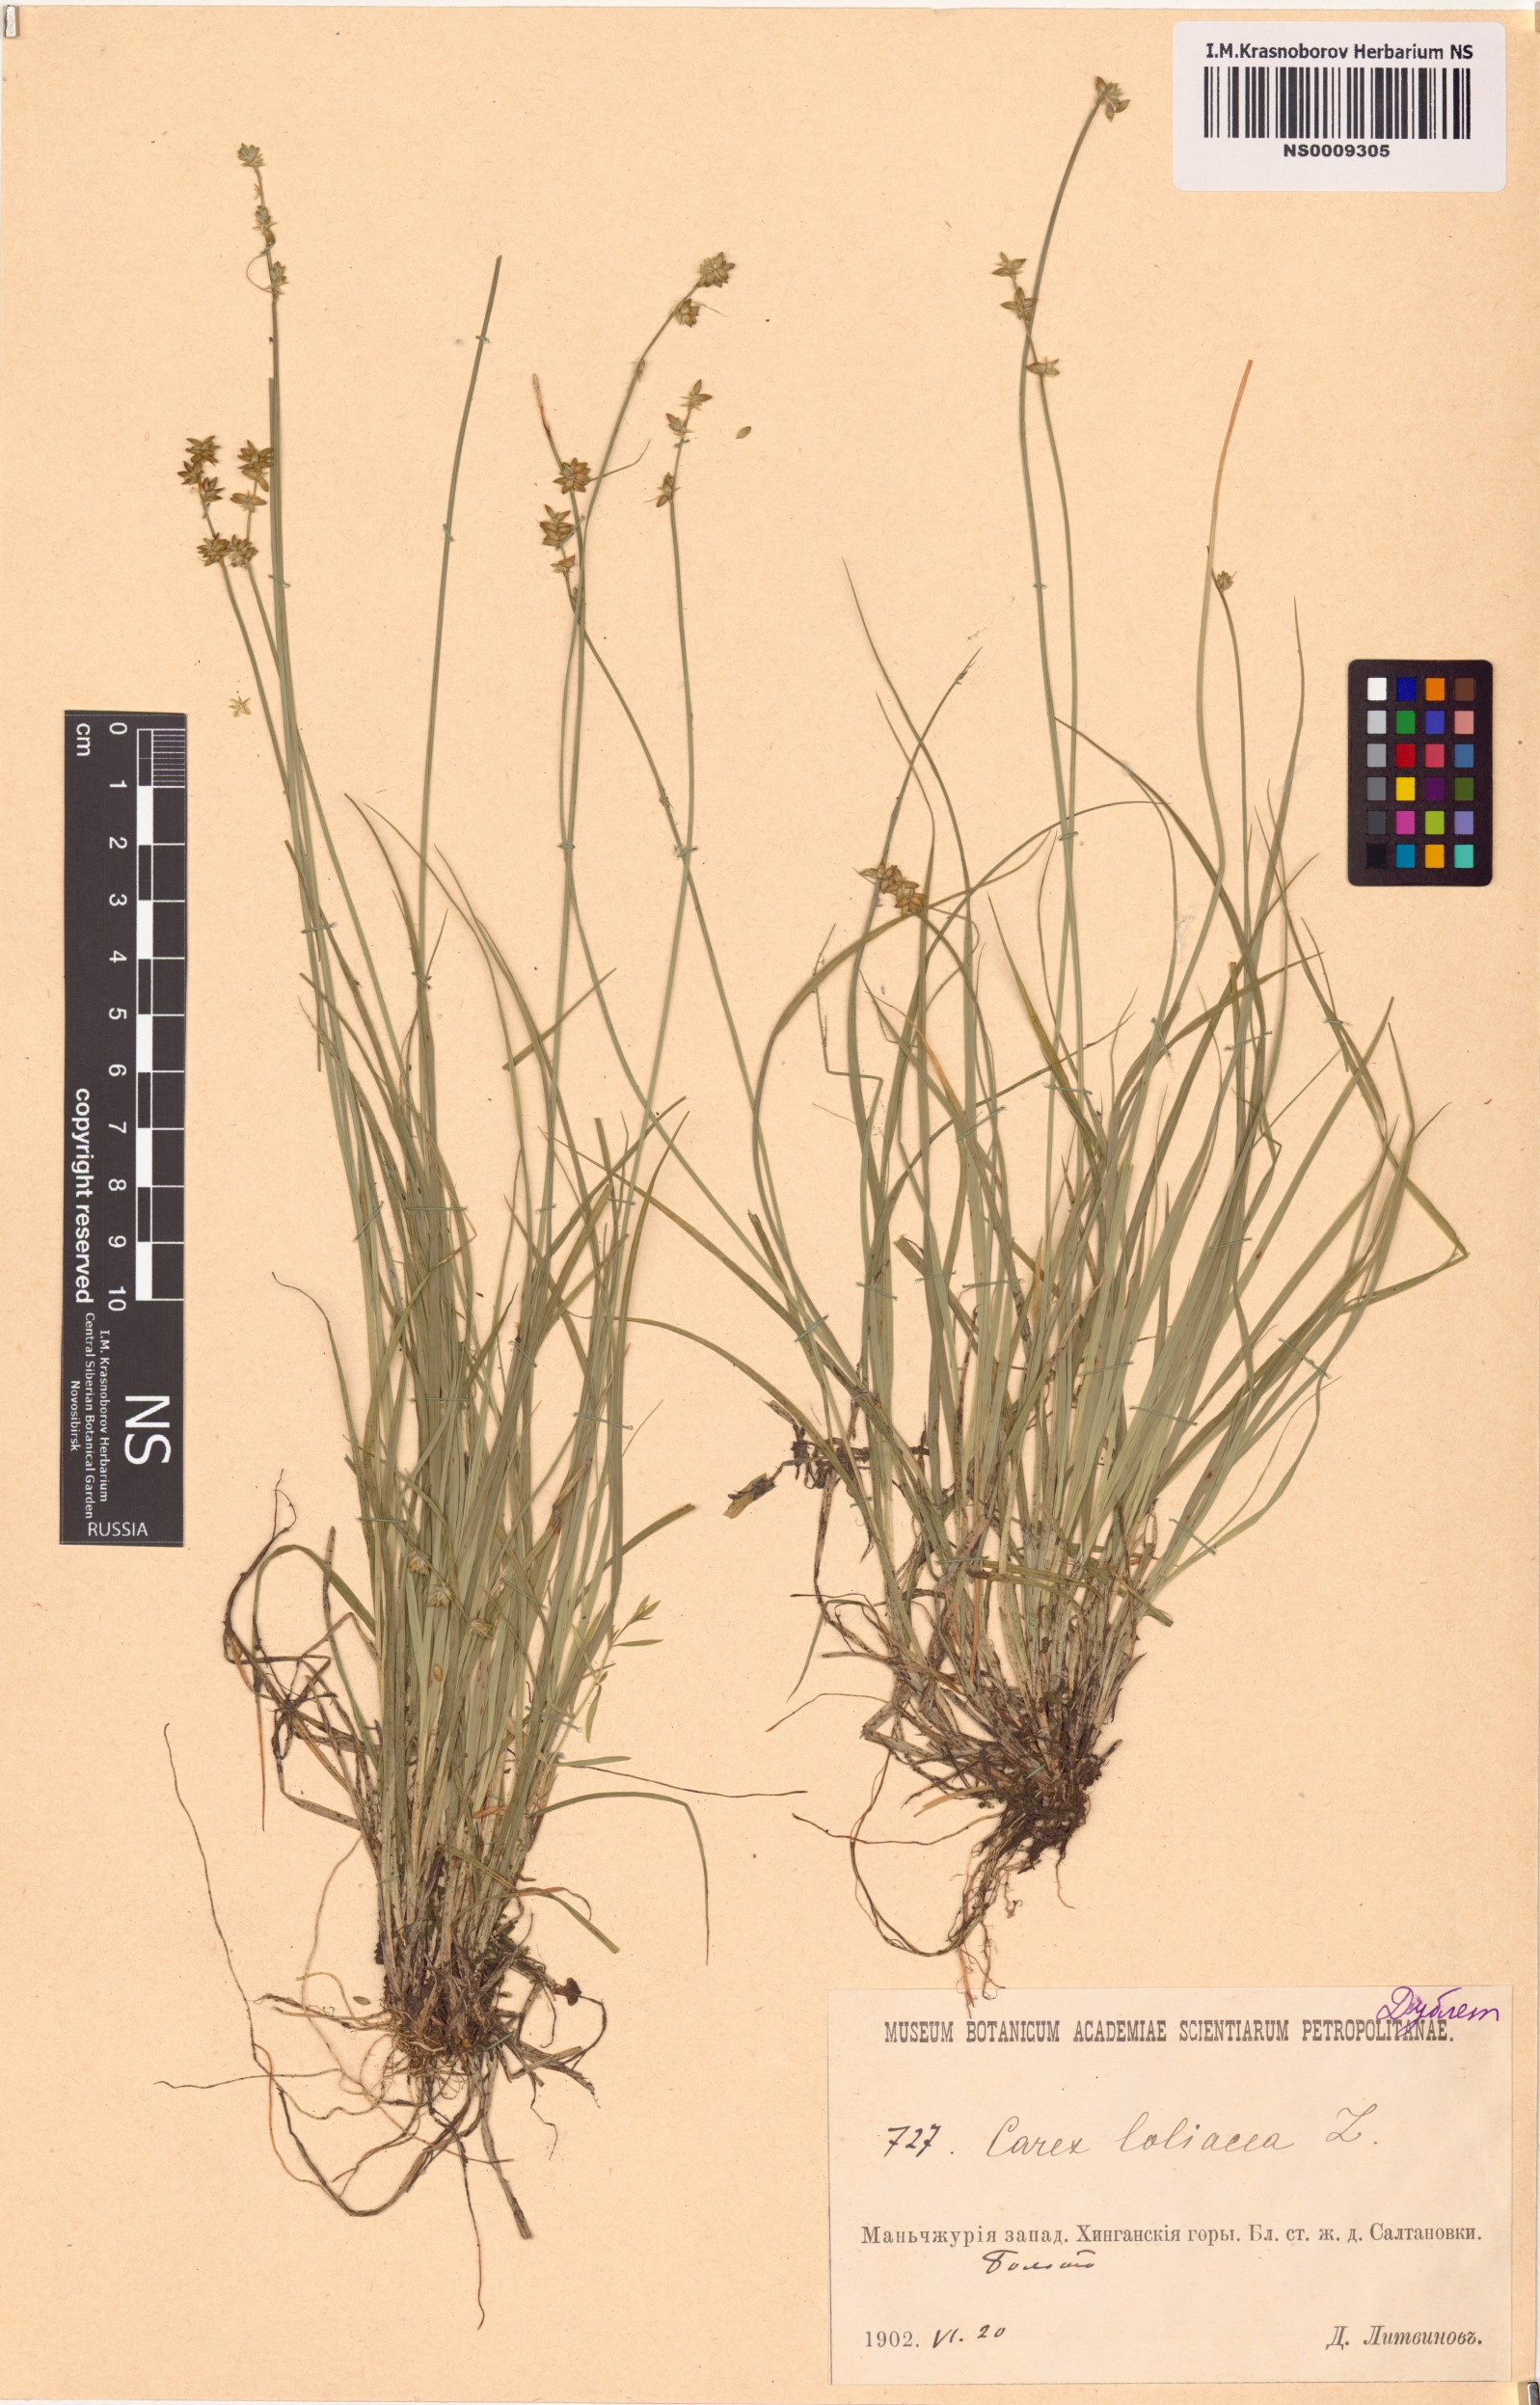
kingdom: Plantae
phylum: Tracheophyta
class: Liliopsida
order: Poales
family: Cyperaceae
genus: Carex
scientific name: Carex loliacea
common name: Ryegrass sedge
